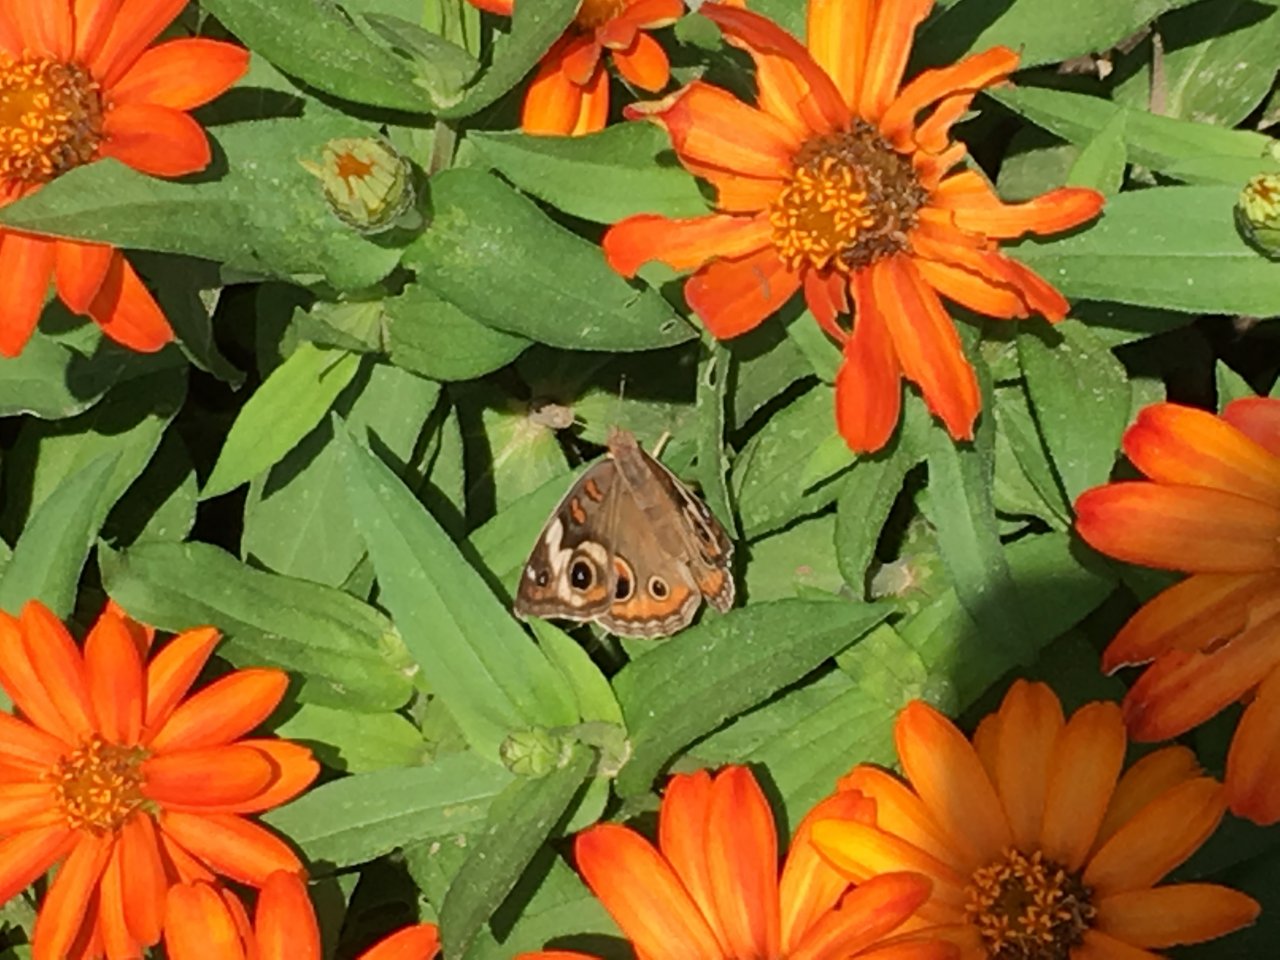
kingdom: Animalia
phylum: Arthropoda
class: Insecta
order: Lepidoptera
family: Nymphalidae
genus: Junonia
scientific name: Junonia coenia
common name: Common Buckeye
